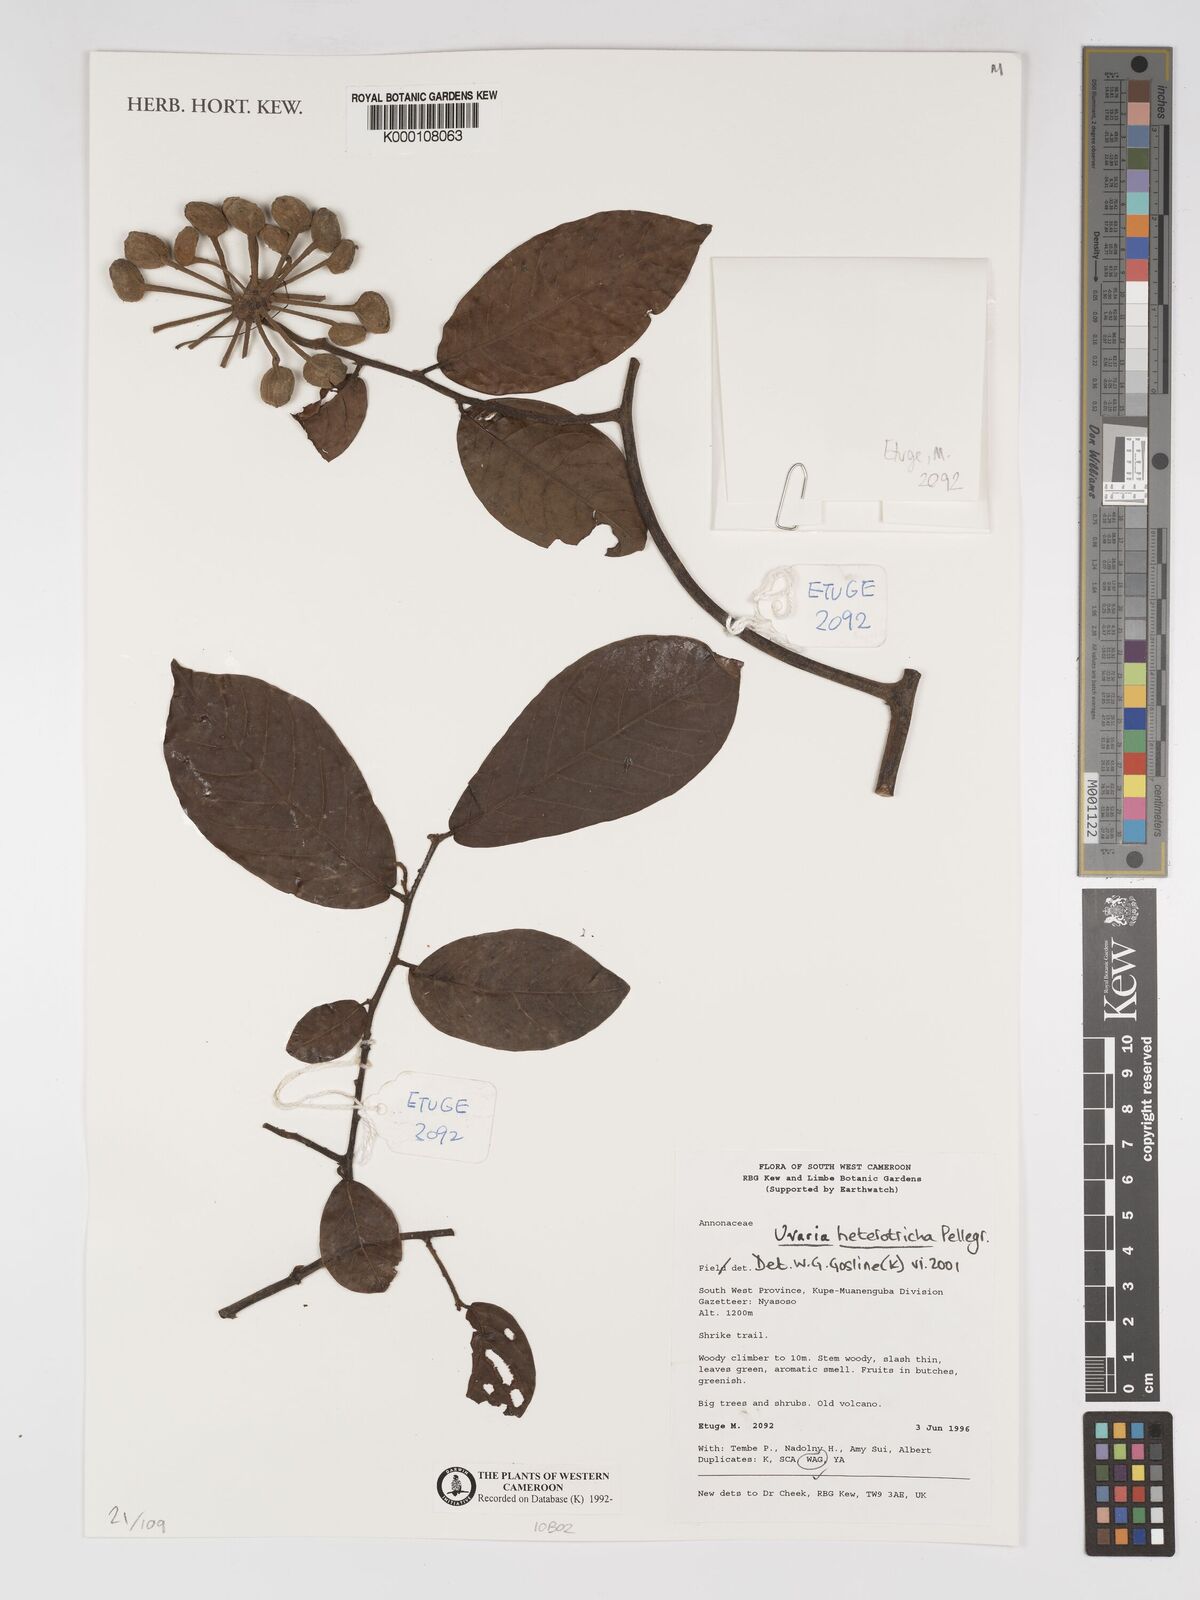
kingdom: Plantae
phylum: Tracheophyta
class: Magnoliopsida
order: Magnoliales
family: Annonaceae
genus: Uvaria
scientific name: Uvaria heterotricha
